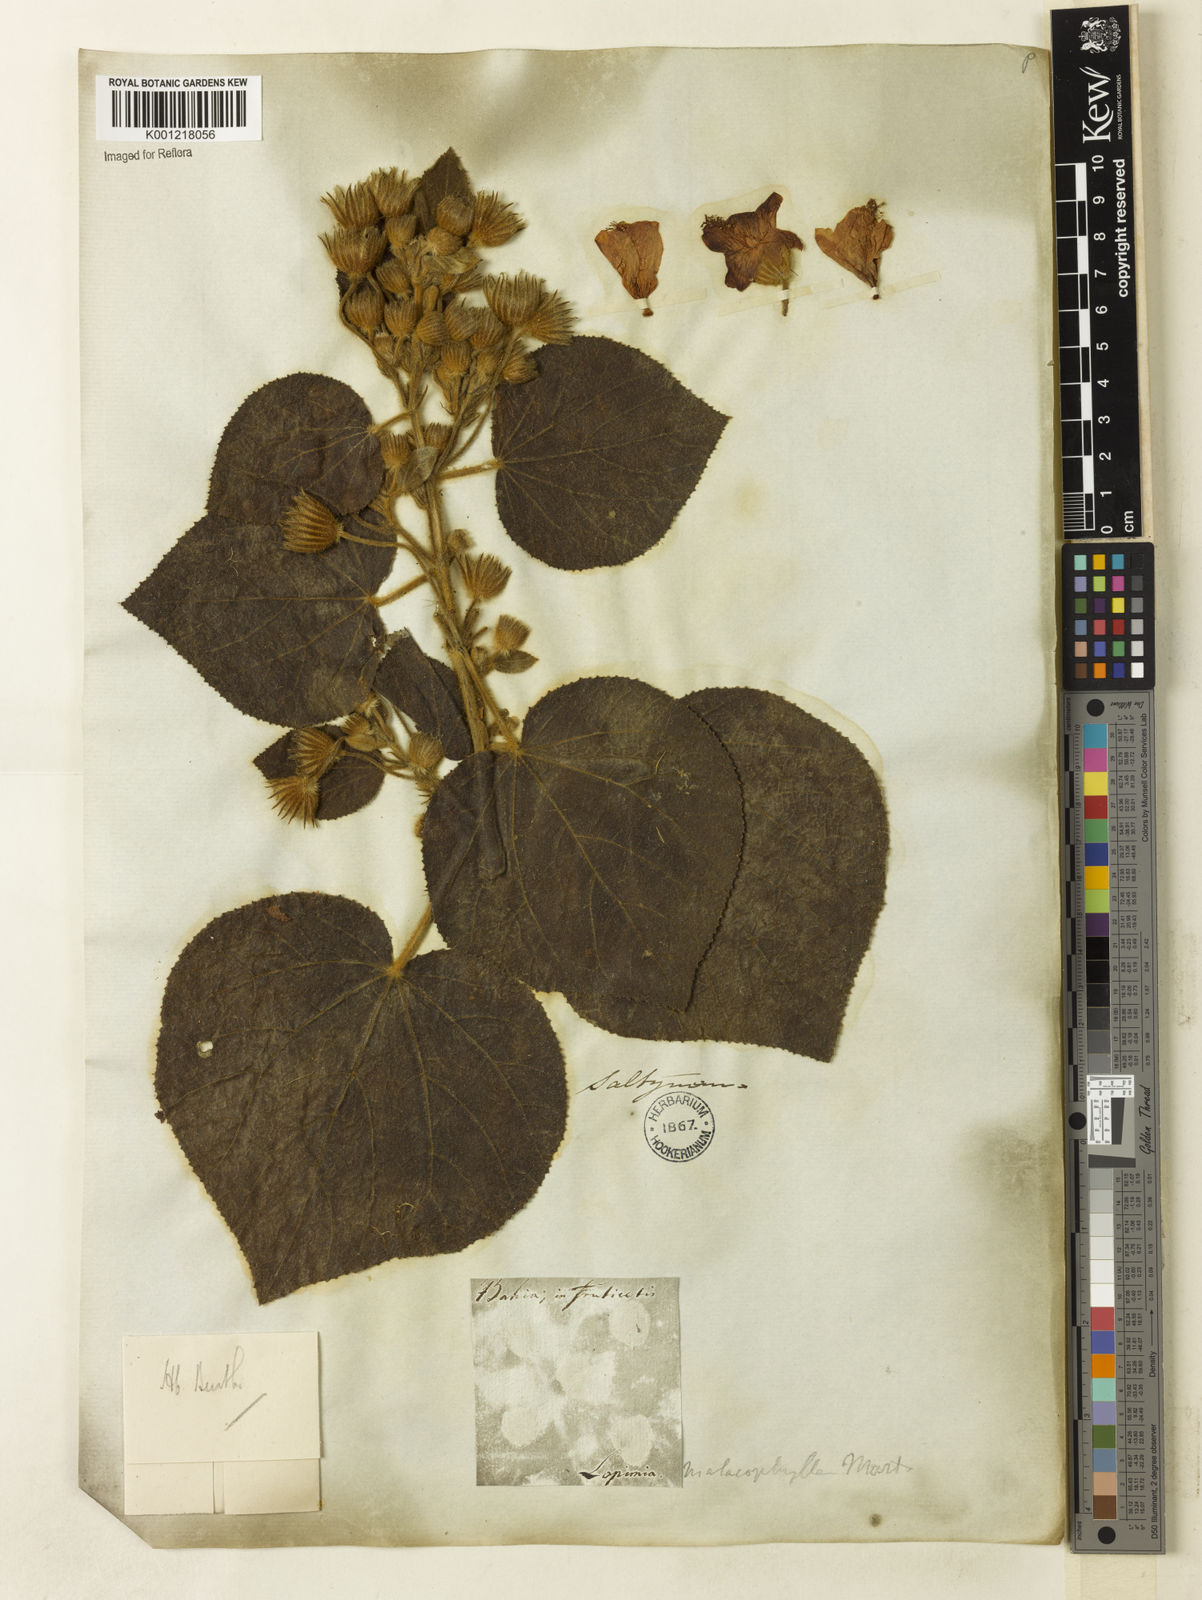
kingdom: Plantae
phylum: Tracheophyta
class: Magnoliopsida
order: Malvales
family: Malvaceae
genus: Pavonia
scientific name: Pavonia malacophylla
